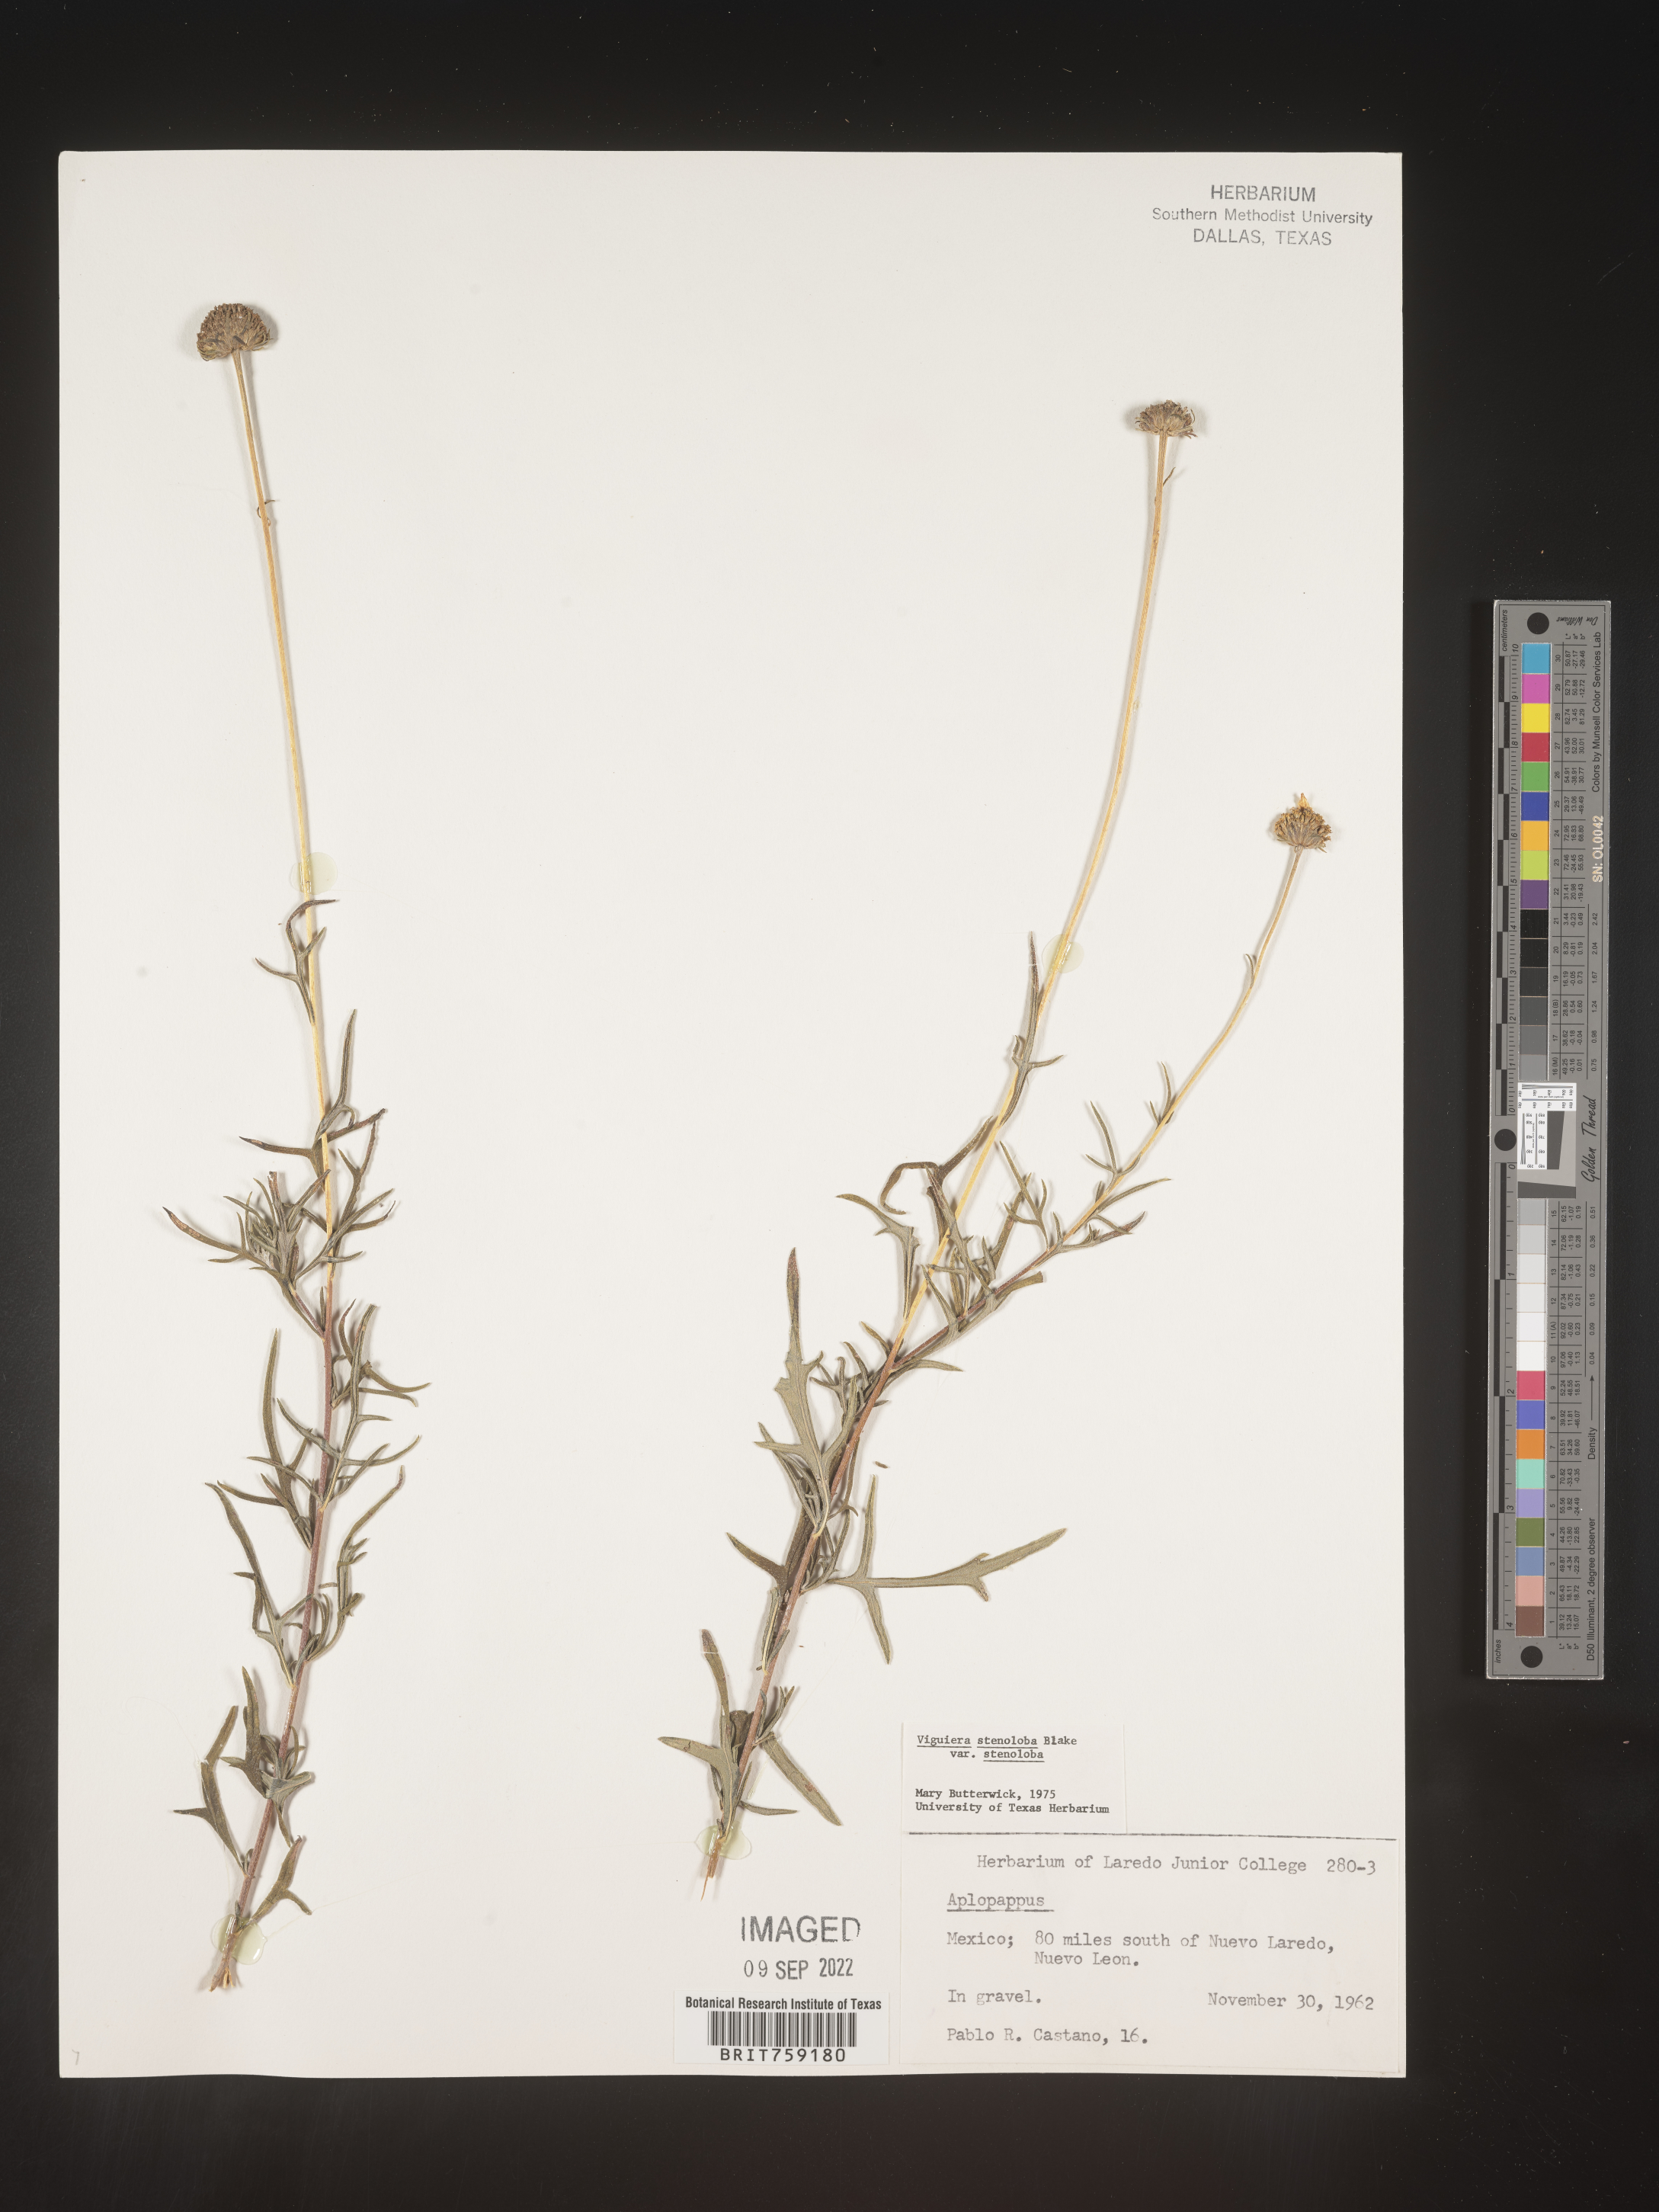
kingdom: Plantae
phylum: Tracheophyta
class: Magnoliopsida
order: Asterales
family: Asteraceae
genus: Viguiera
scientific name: Viguiera
